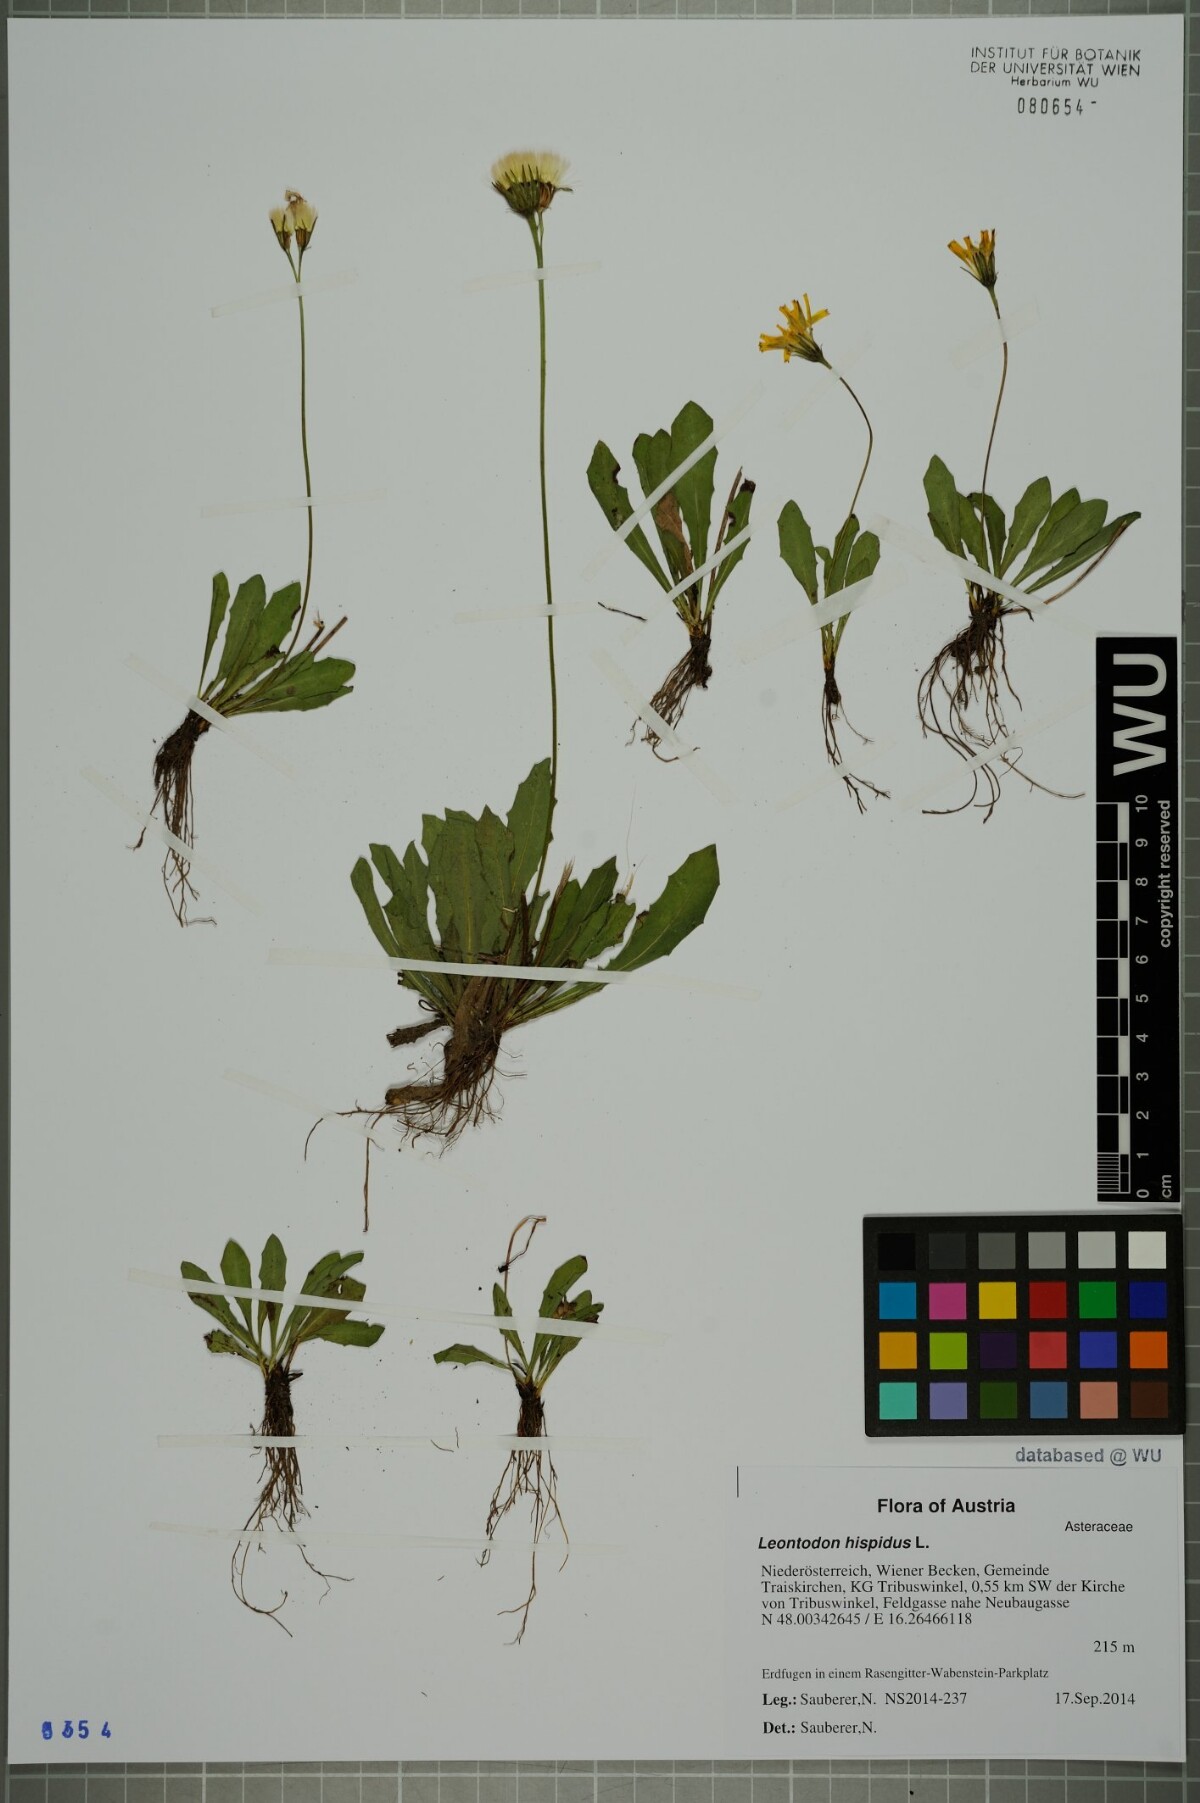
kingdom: Plantae
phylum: Tracheophyta
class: Magnoliopsida
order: Asterales
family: Asteraceae
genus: Leontodon
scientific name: Leontodon hispidus
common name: Rough hawkbit
